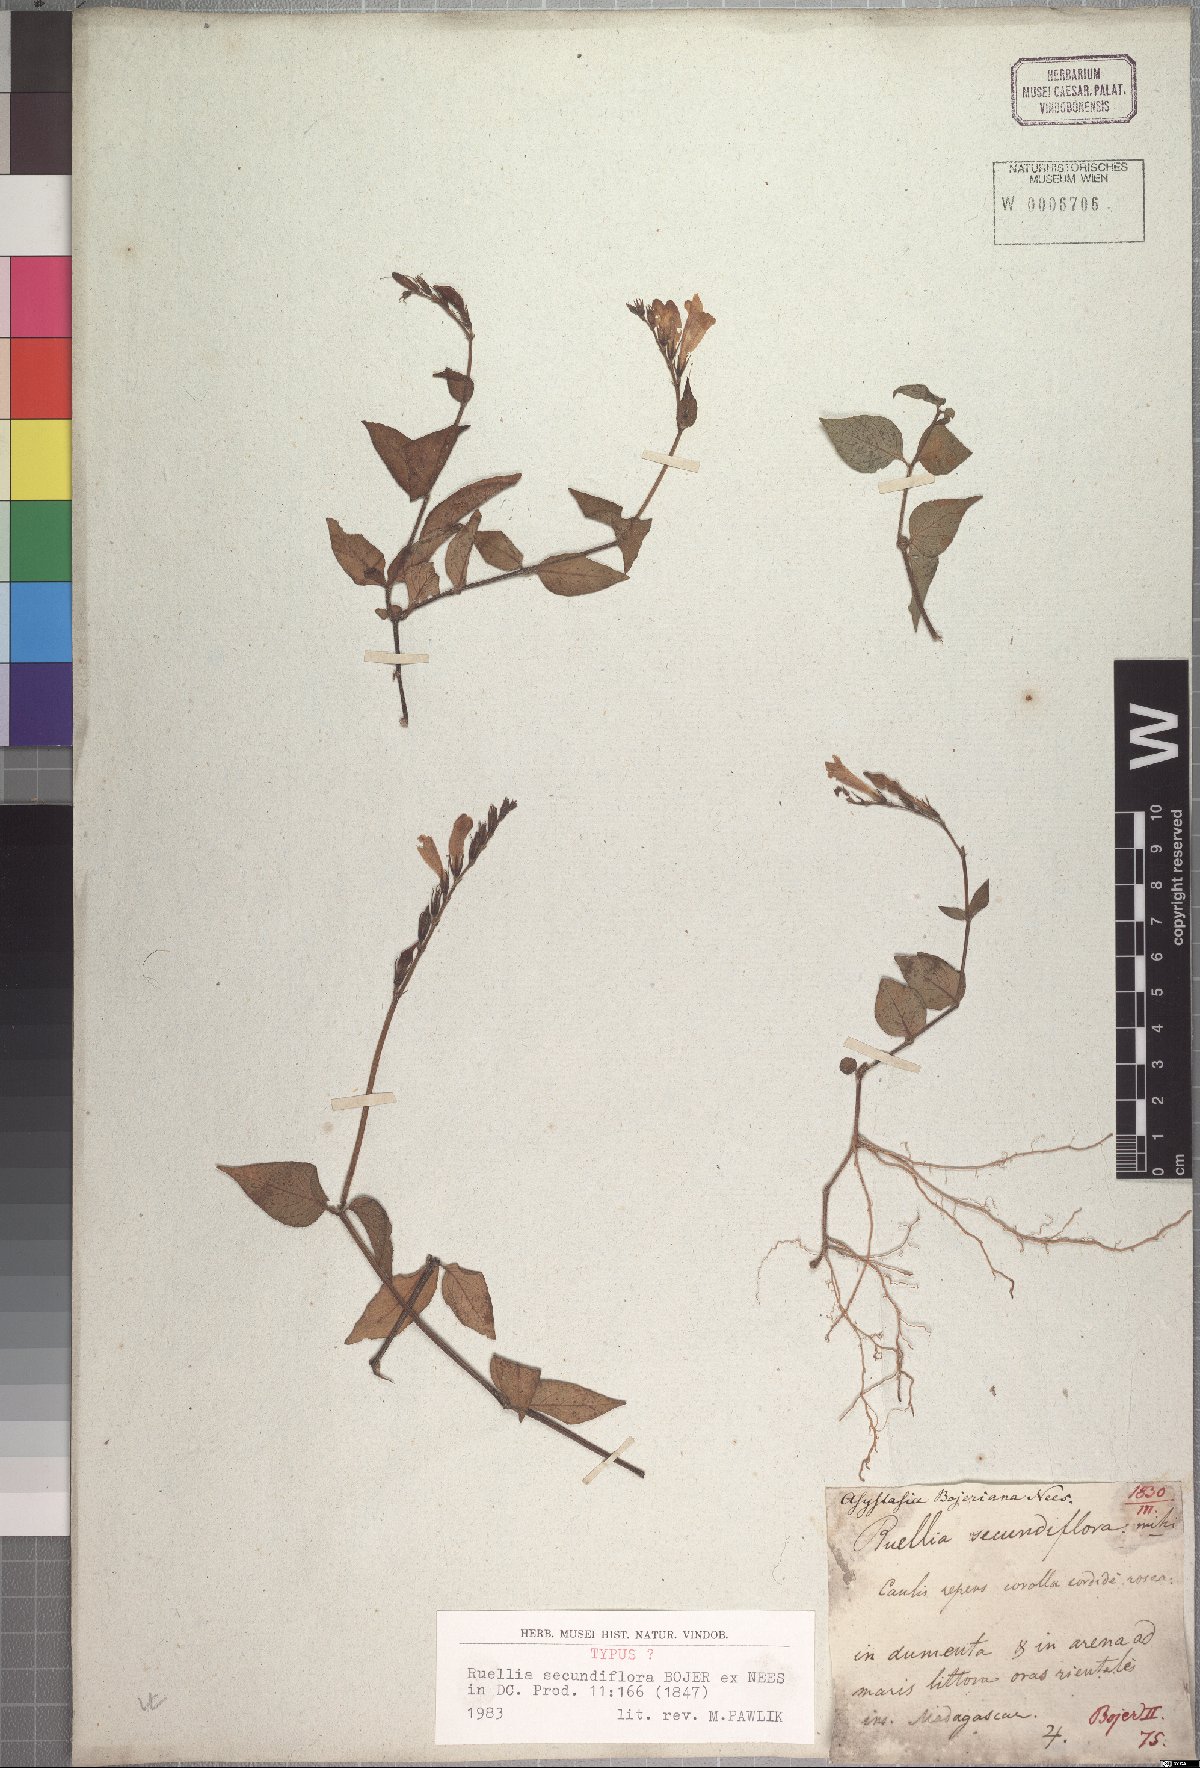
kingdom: Plantae
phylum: Tracheophyta
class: Magnoliopsida
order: Lamiales
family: Acanthaceae
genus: Asystasia
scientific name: Asystasia gangetica
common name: Chinese violet
